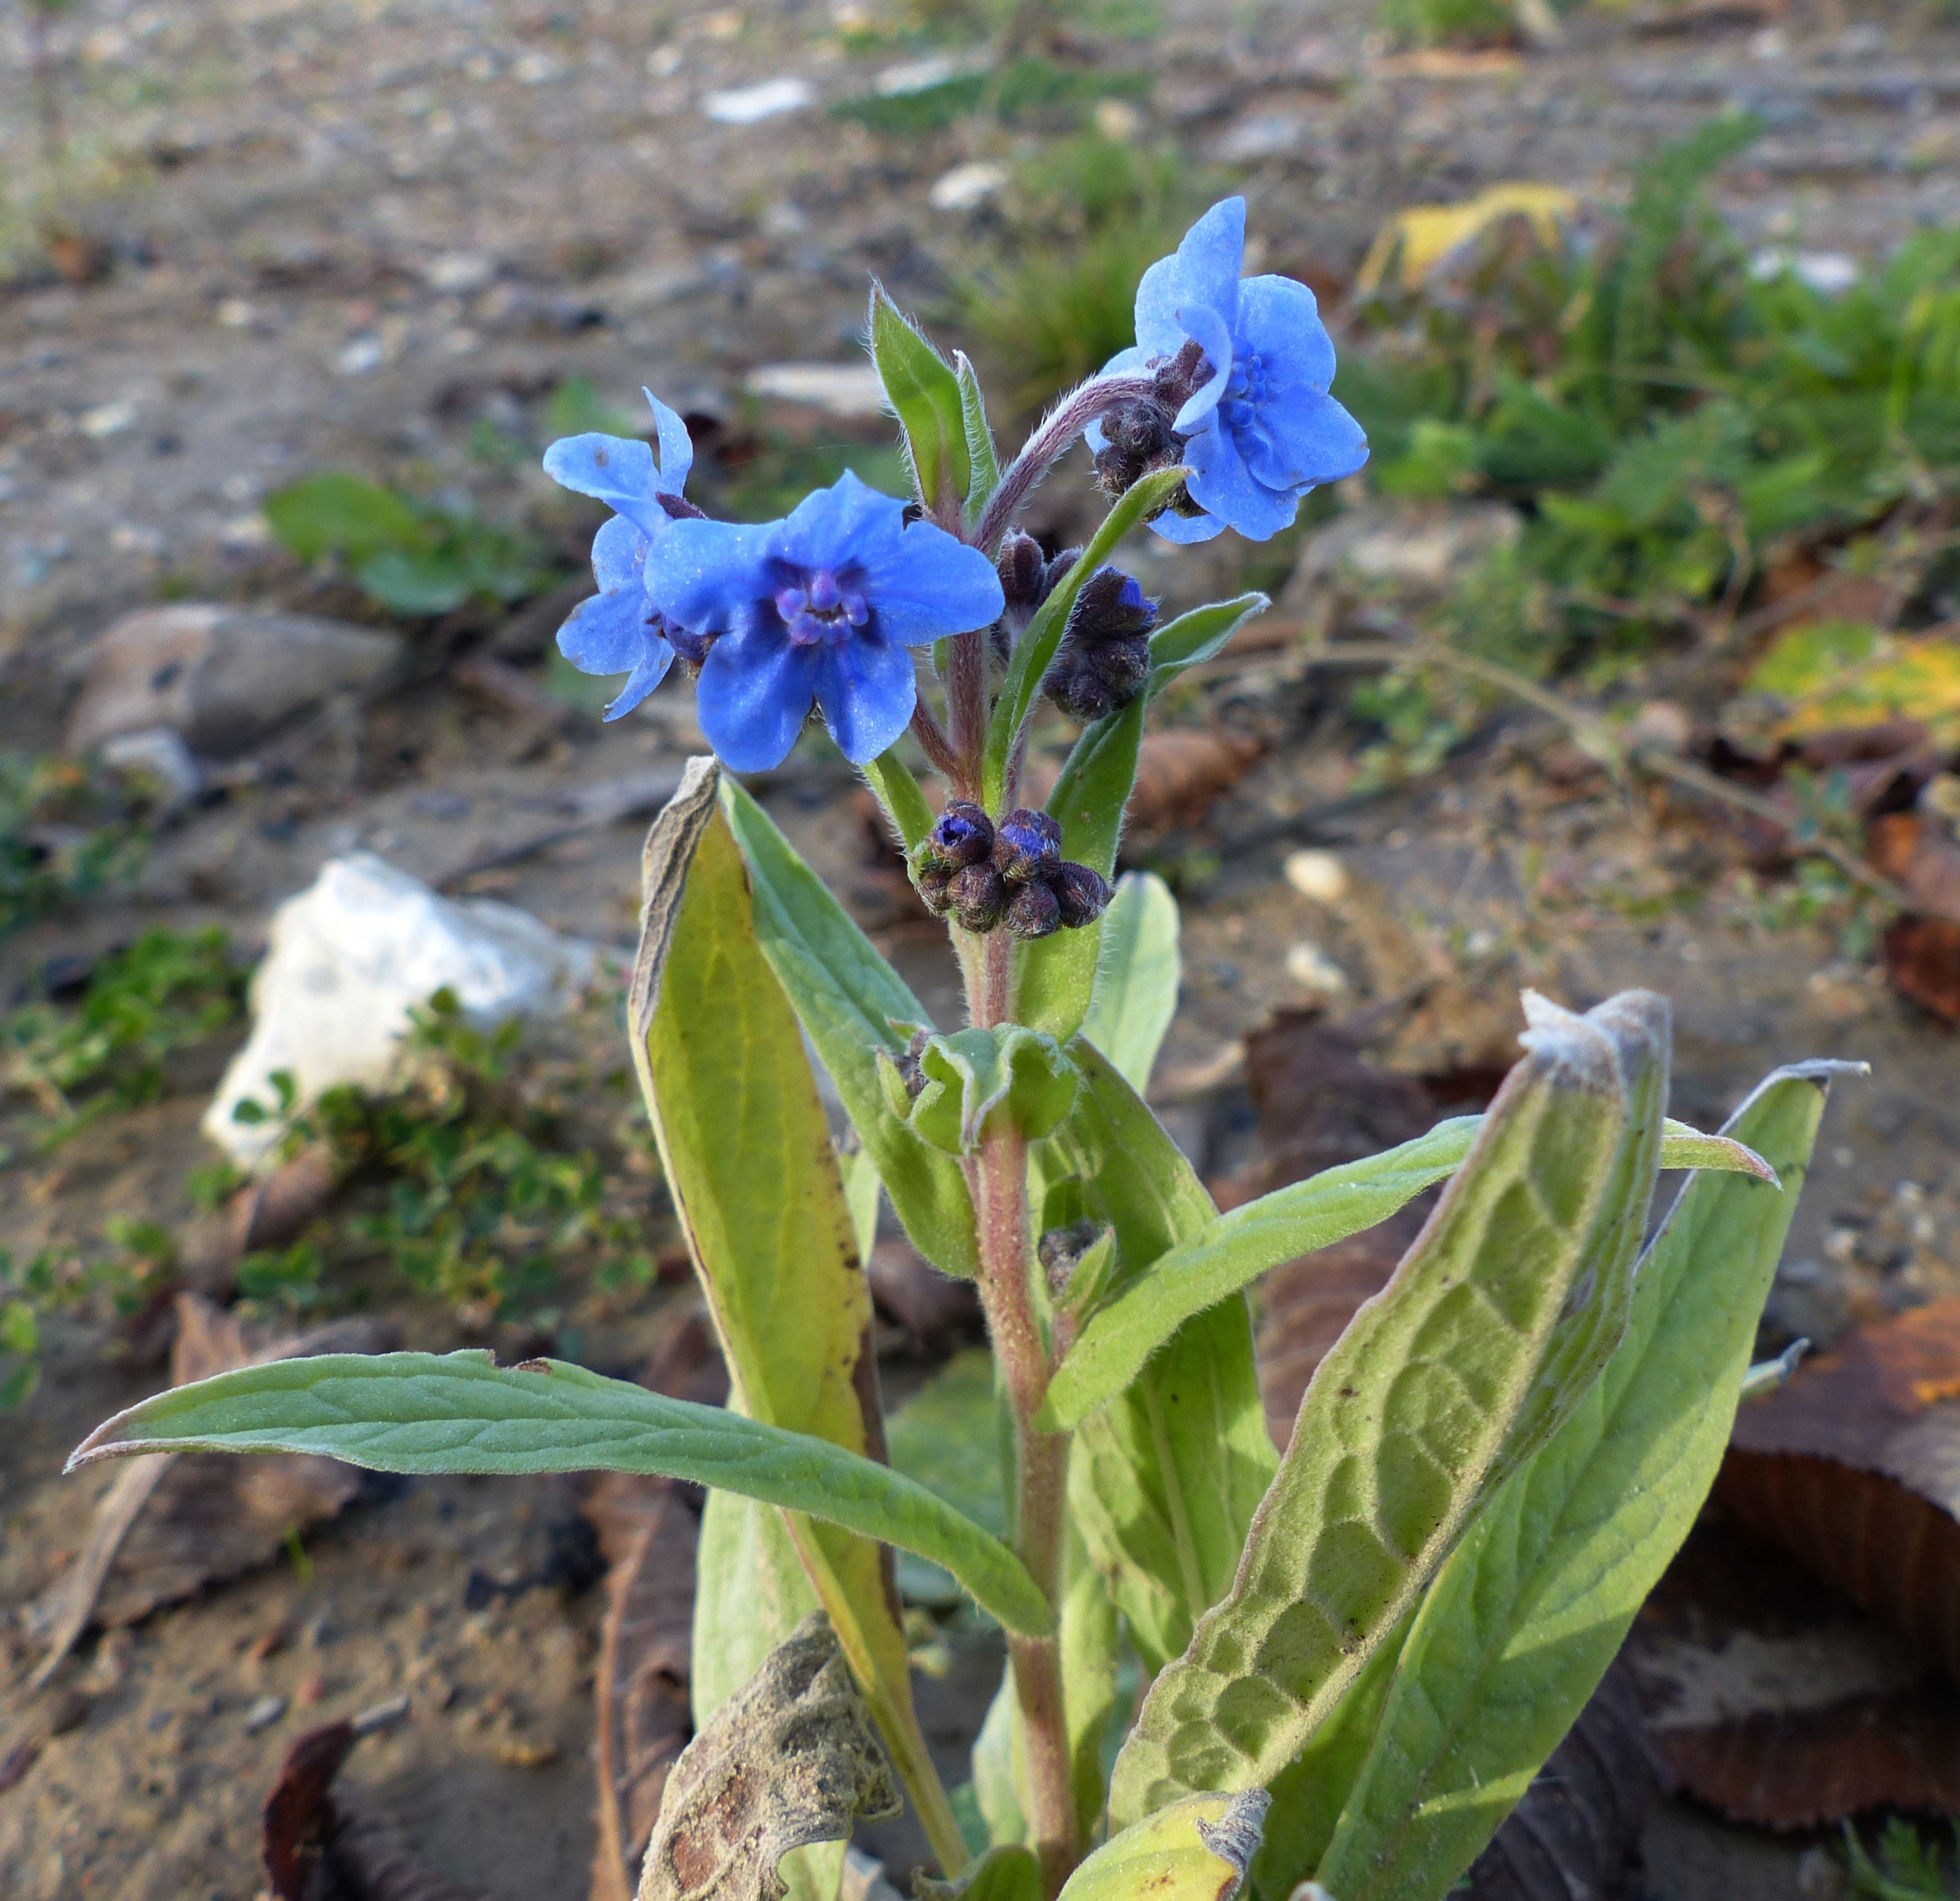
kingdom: Plantae
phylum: Tracheophyta
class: Magnoliopsida
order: Boraginales
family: Boraginaceae
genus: Cynoglossum
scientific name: Cynoglossum amabile
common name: Kinesisk hundetunge
